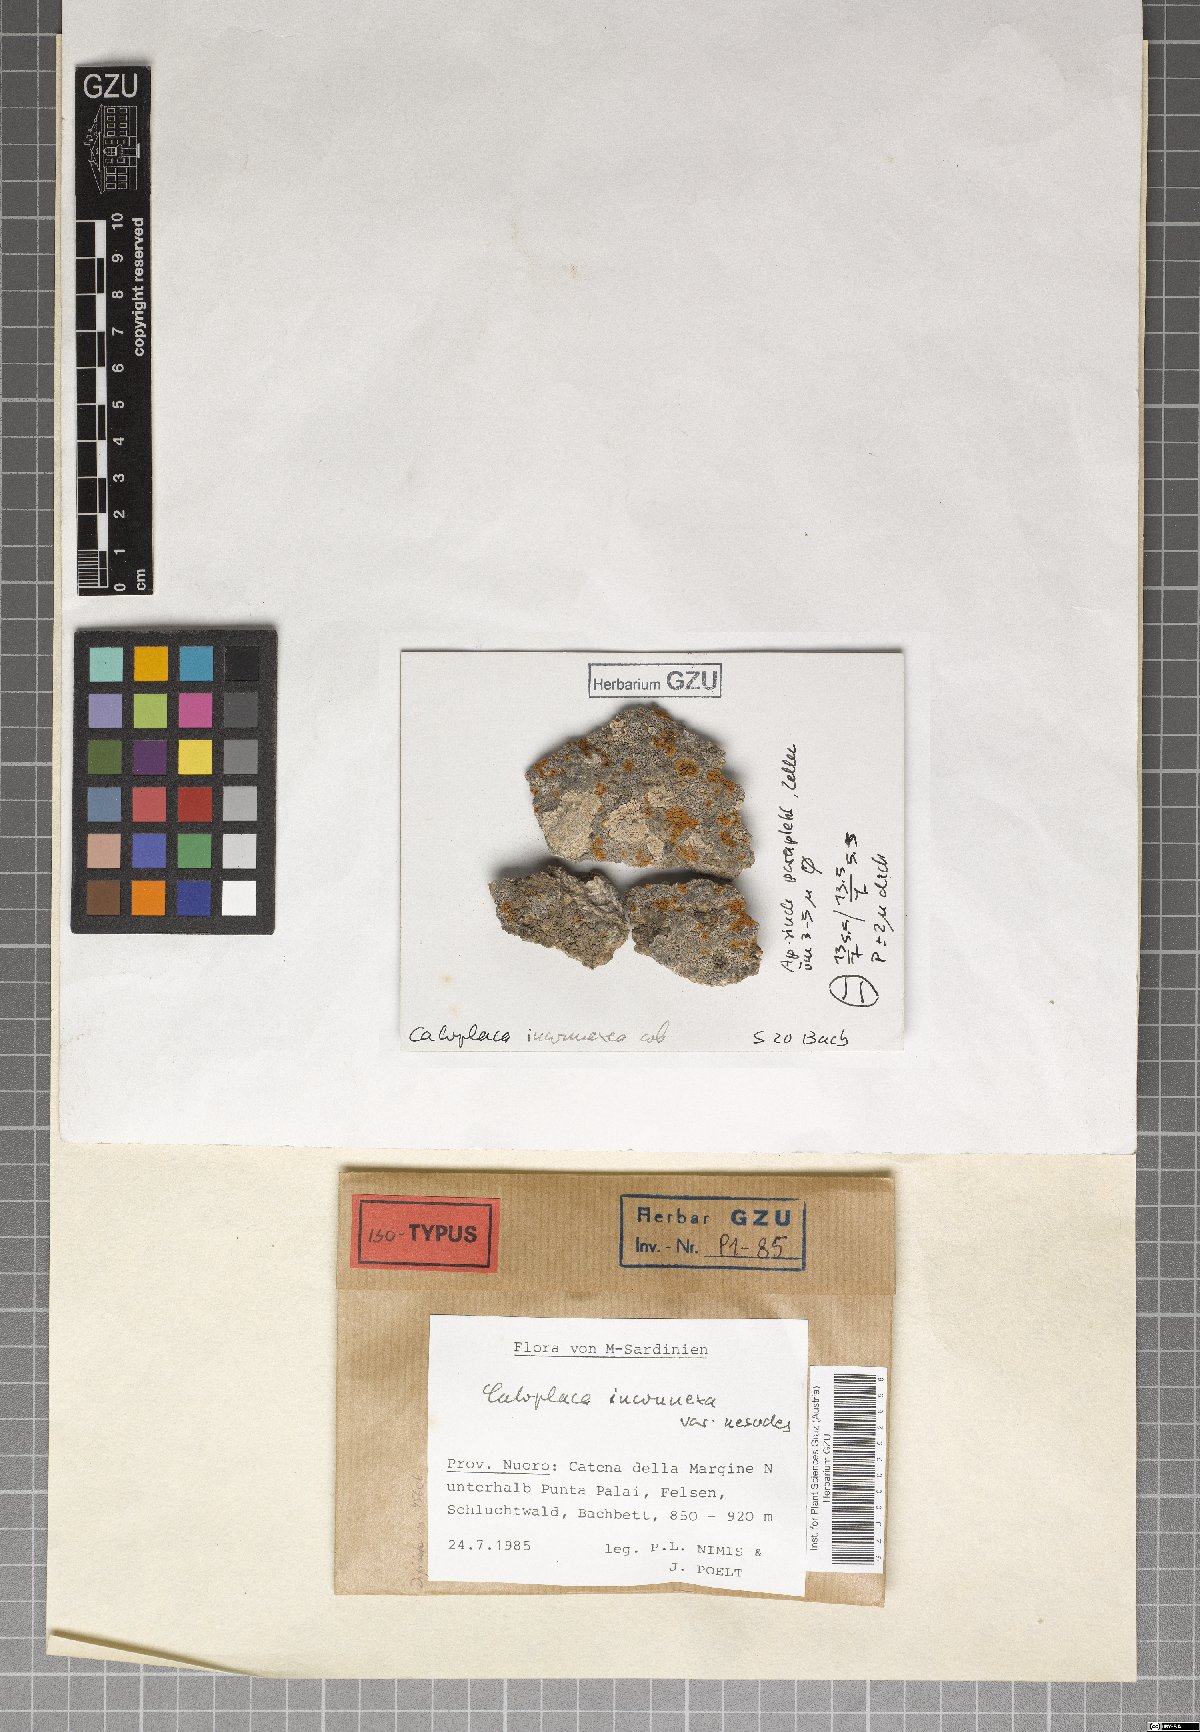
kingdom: Fungi
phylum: Ascomycota
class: Lecanoromycetes
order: Teloschistales
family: Teloschistaceae
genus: Squamulea
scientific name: Squamulea nesodes
